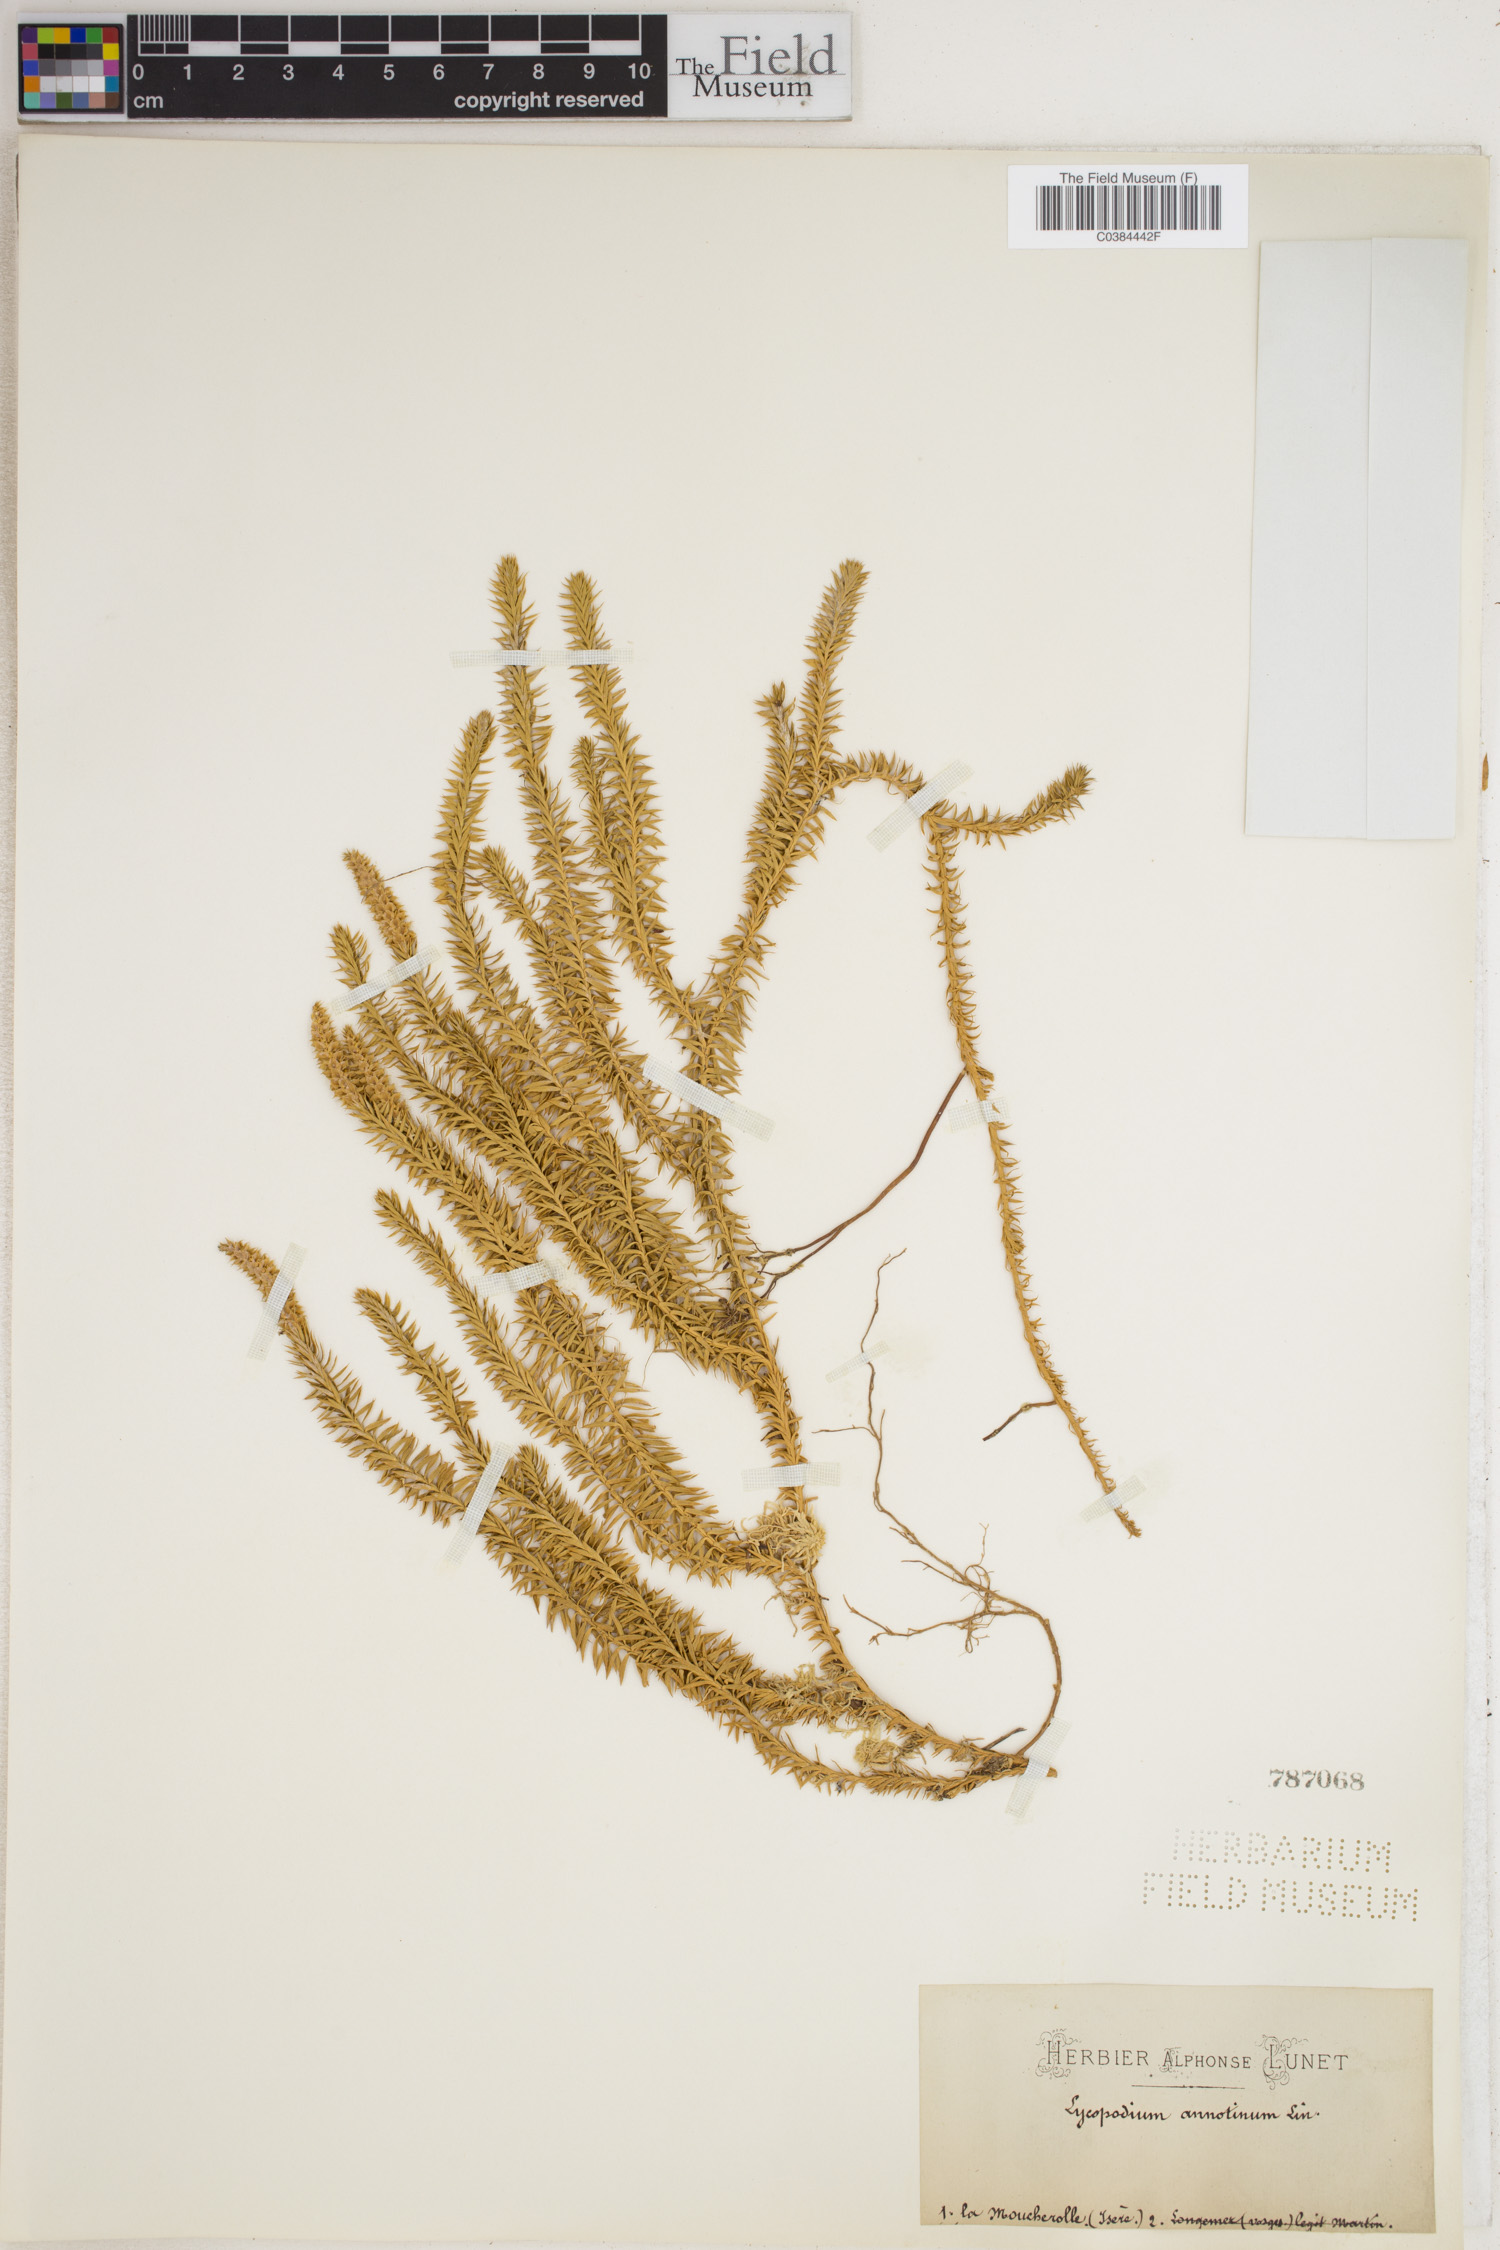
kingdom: Plantae
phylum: Tracheophyta
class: Lycopodiopsida
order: Lycopodiales
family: Lycopodiaceae
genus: Spinulum
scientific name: Spinulum annotinum
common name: Interrupted club-moss
